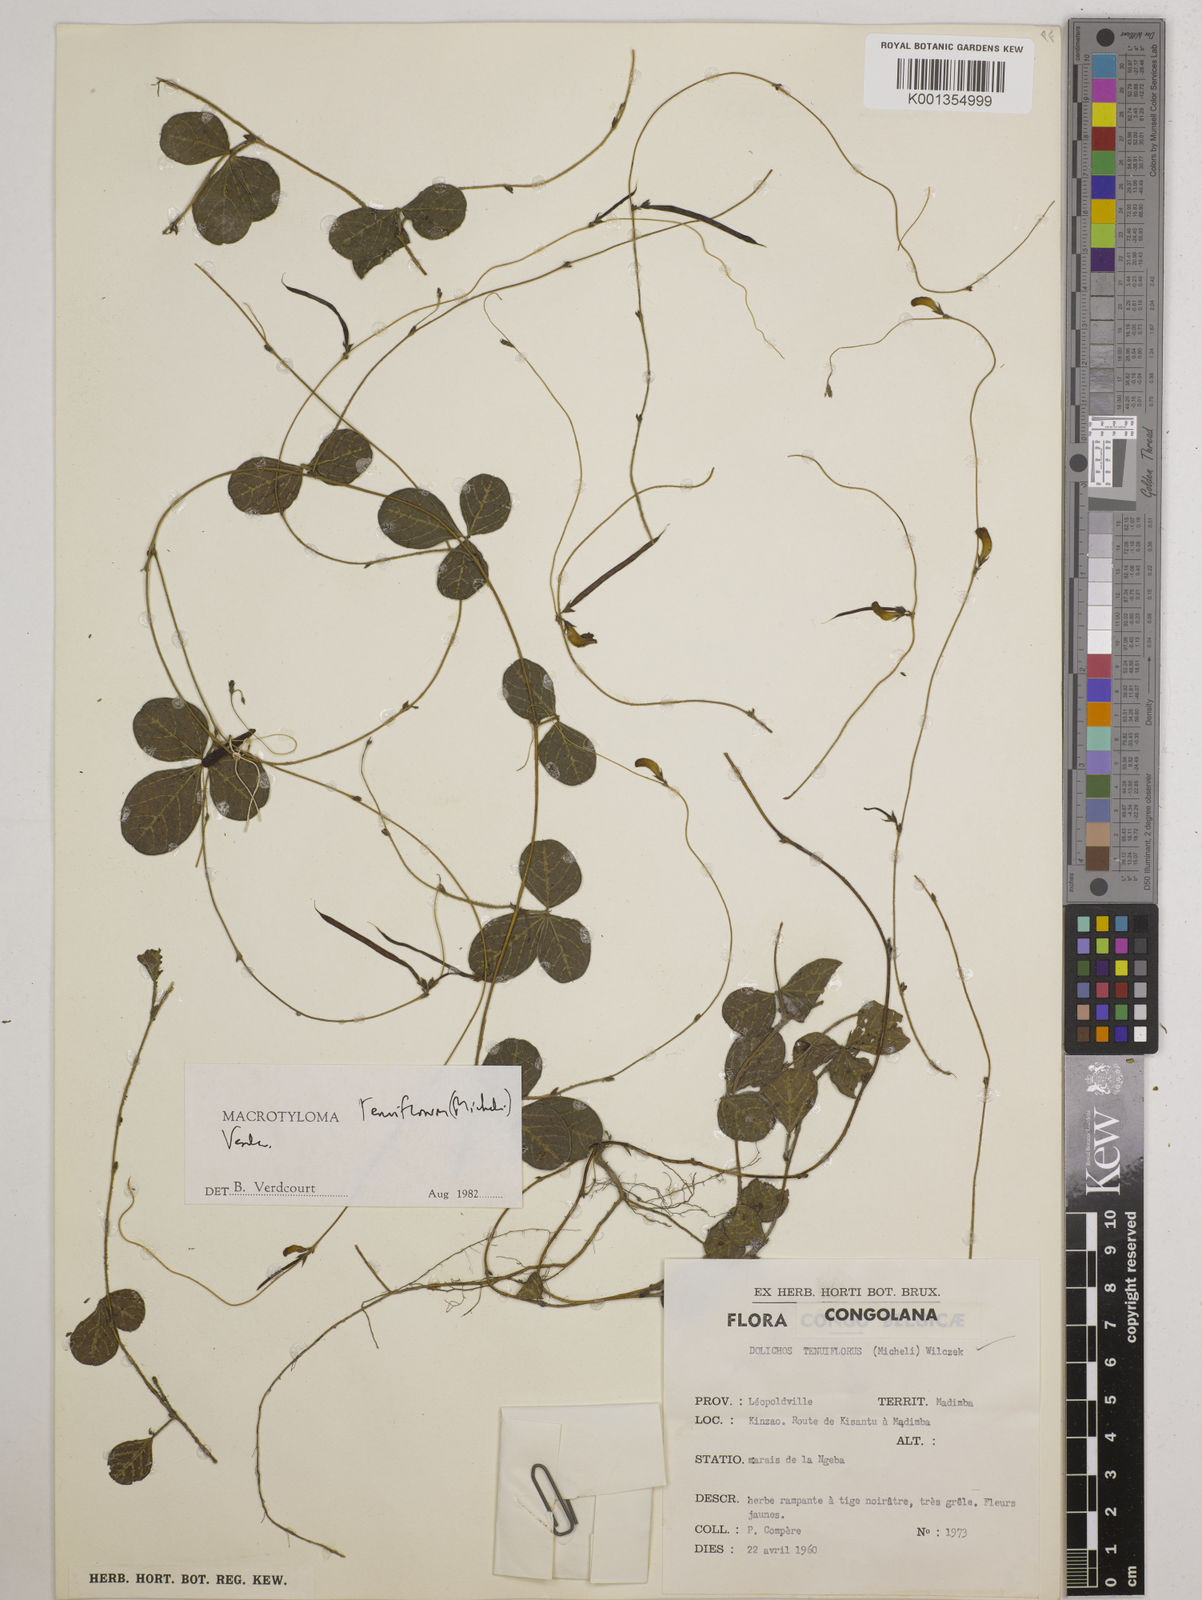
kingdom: Plantae
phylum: Tracheophyta
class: Magnoliopsida
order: Fabales
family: Fabaceae
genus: Macrotyloma
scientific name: Macrotyloma tenuiflorum
